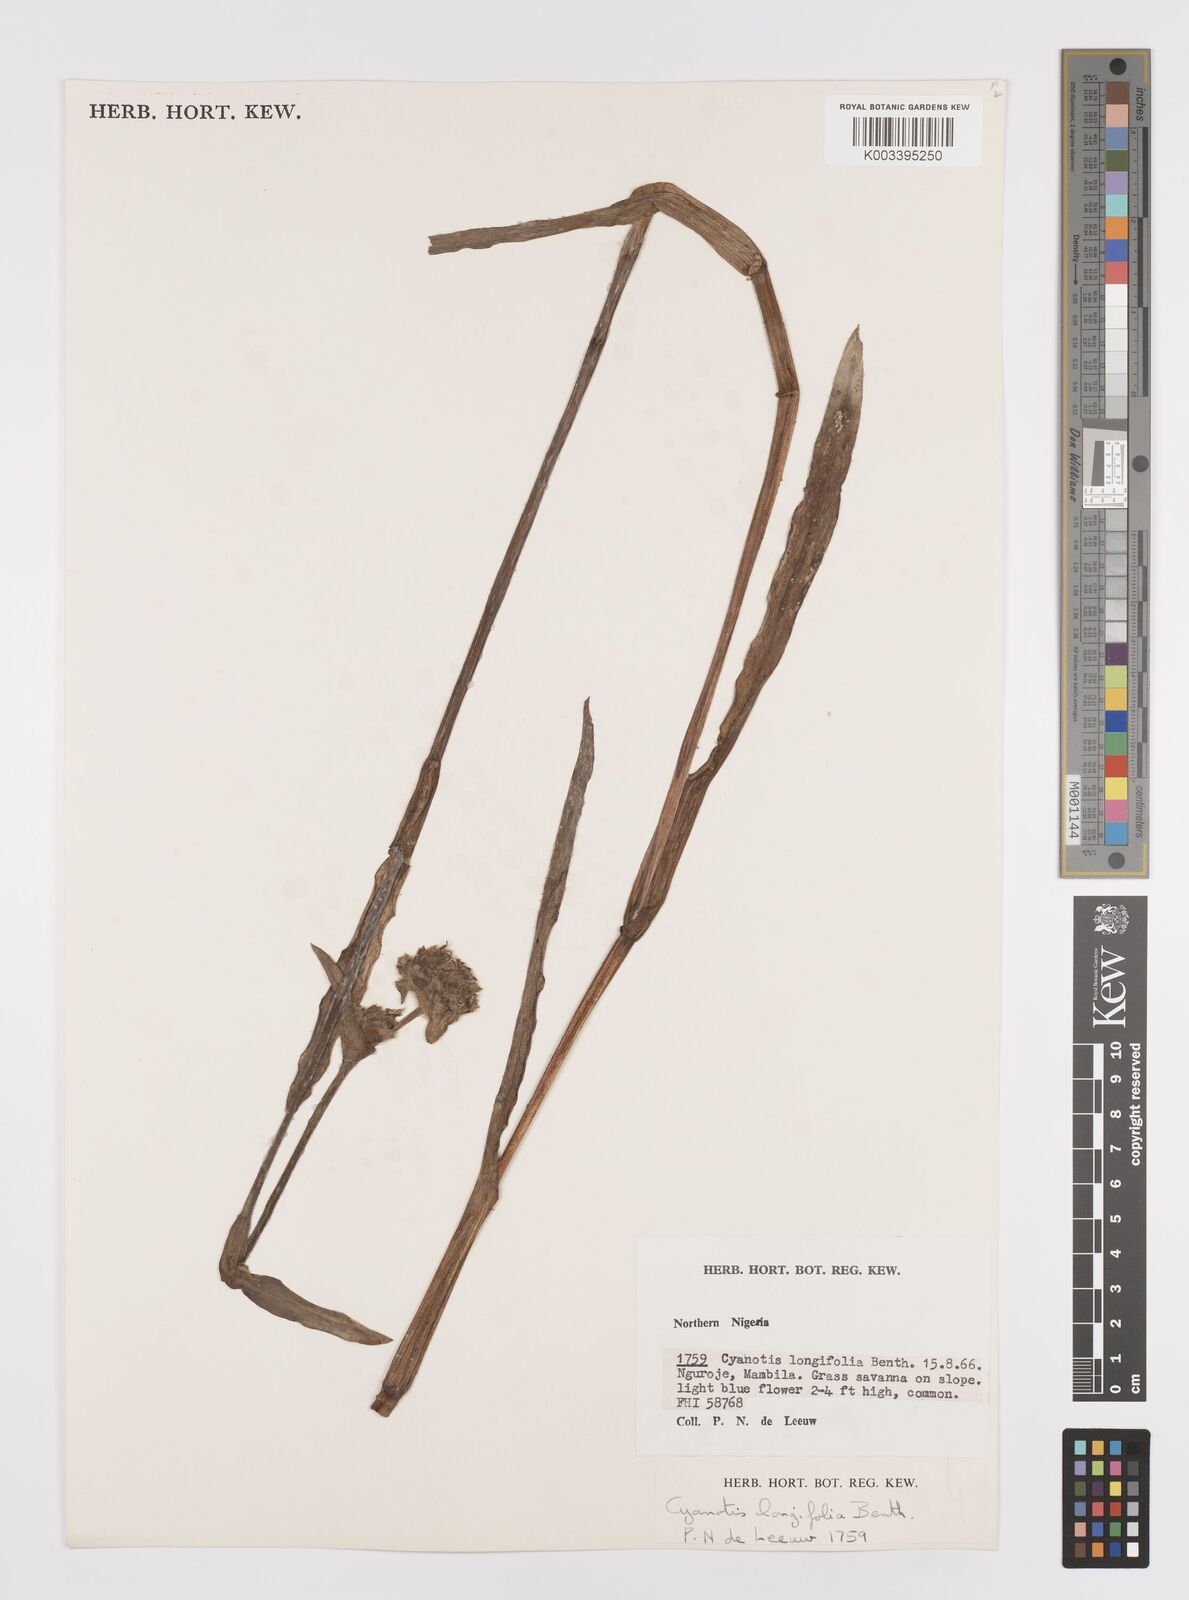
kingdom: Plantae
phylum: Tracheophyta
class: Liliopsida
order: Commelinales
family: Commelinaceae
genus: Cyanotis
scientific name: Cyanotis
